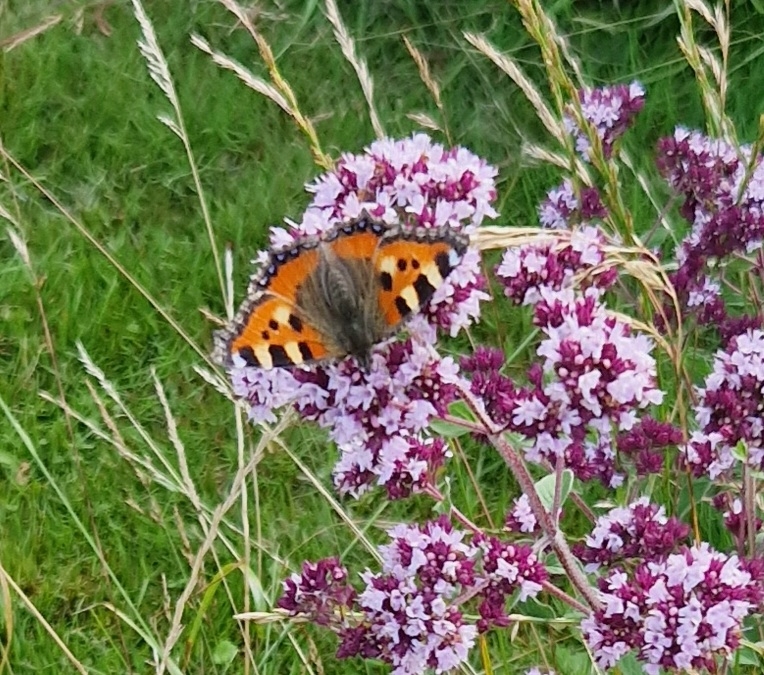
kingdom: Animalia
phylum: Arthropoda
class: Insecta
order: Lepidoptera
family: Nymphalidae
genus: Aglais
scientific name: Aglais urticae
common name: Nældens takvinge
